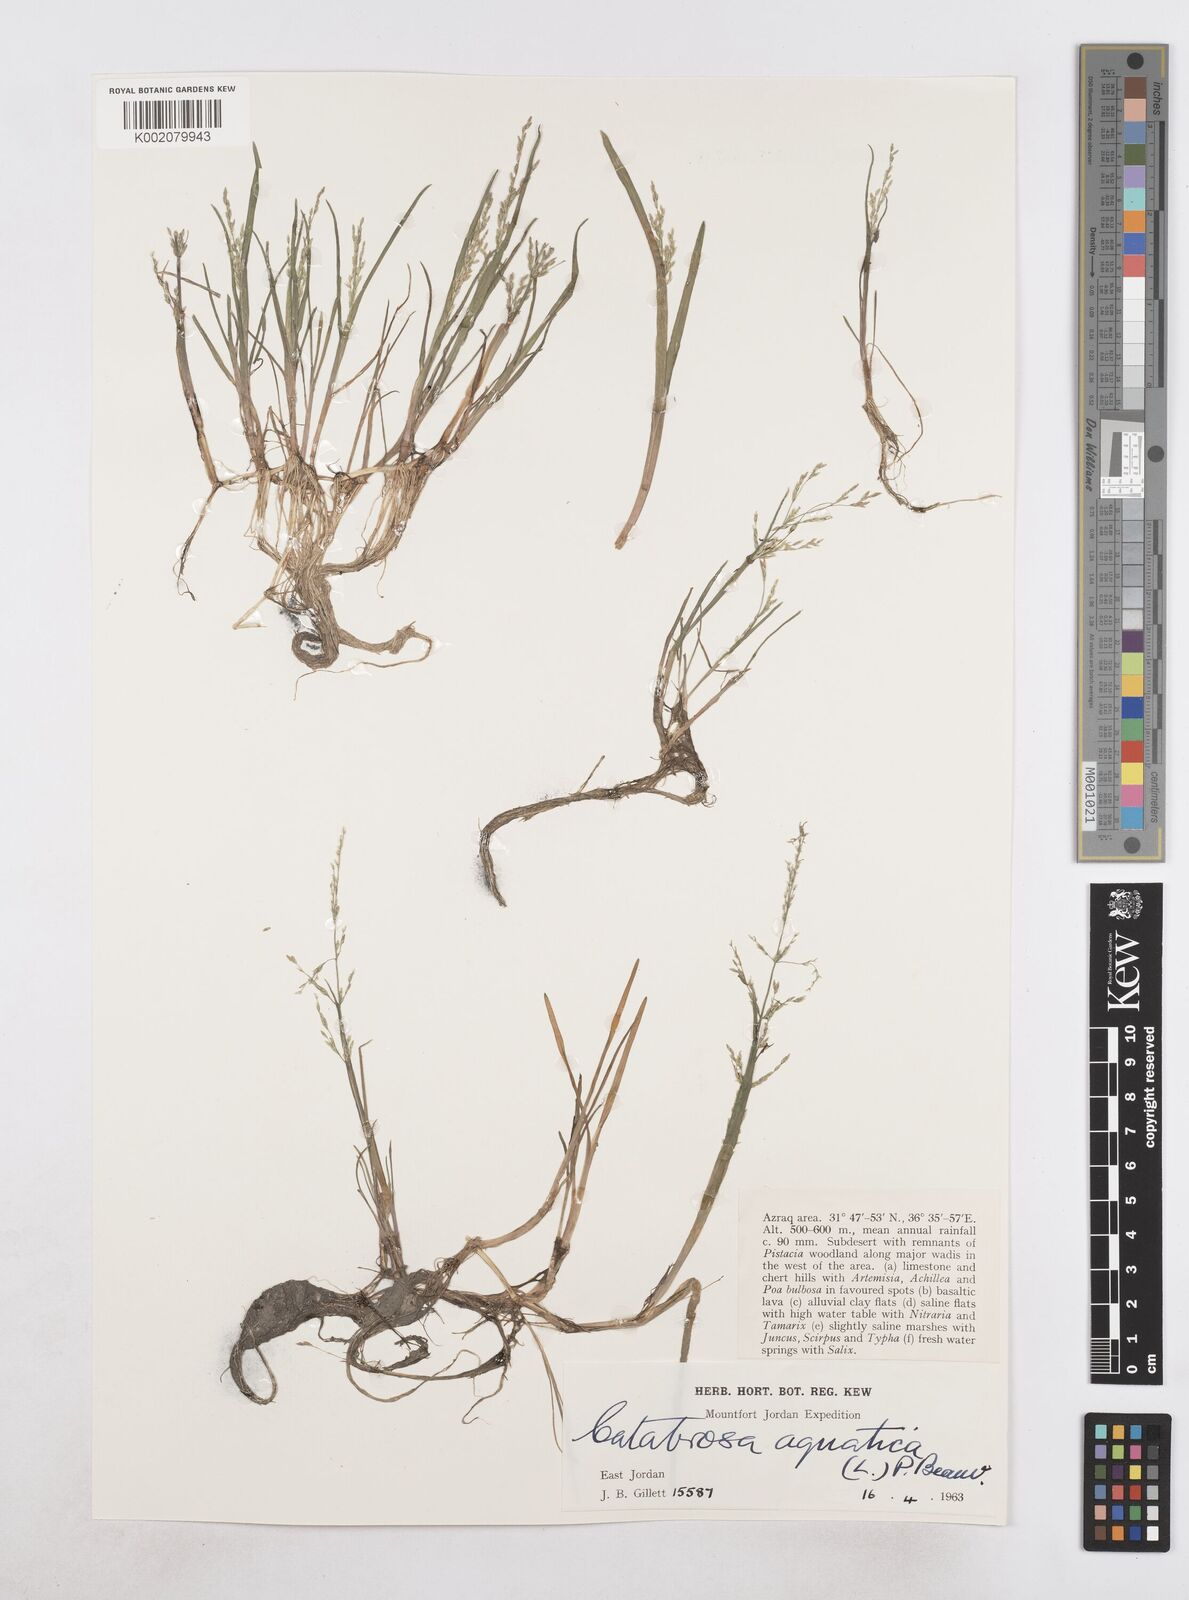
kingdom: Plantae
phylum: Tracheophyta
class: Liliopsida
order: Poales
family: Poaceae
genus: Catabrosa
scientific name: Catabrosa aquatica
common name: Whorl-grass
